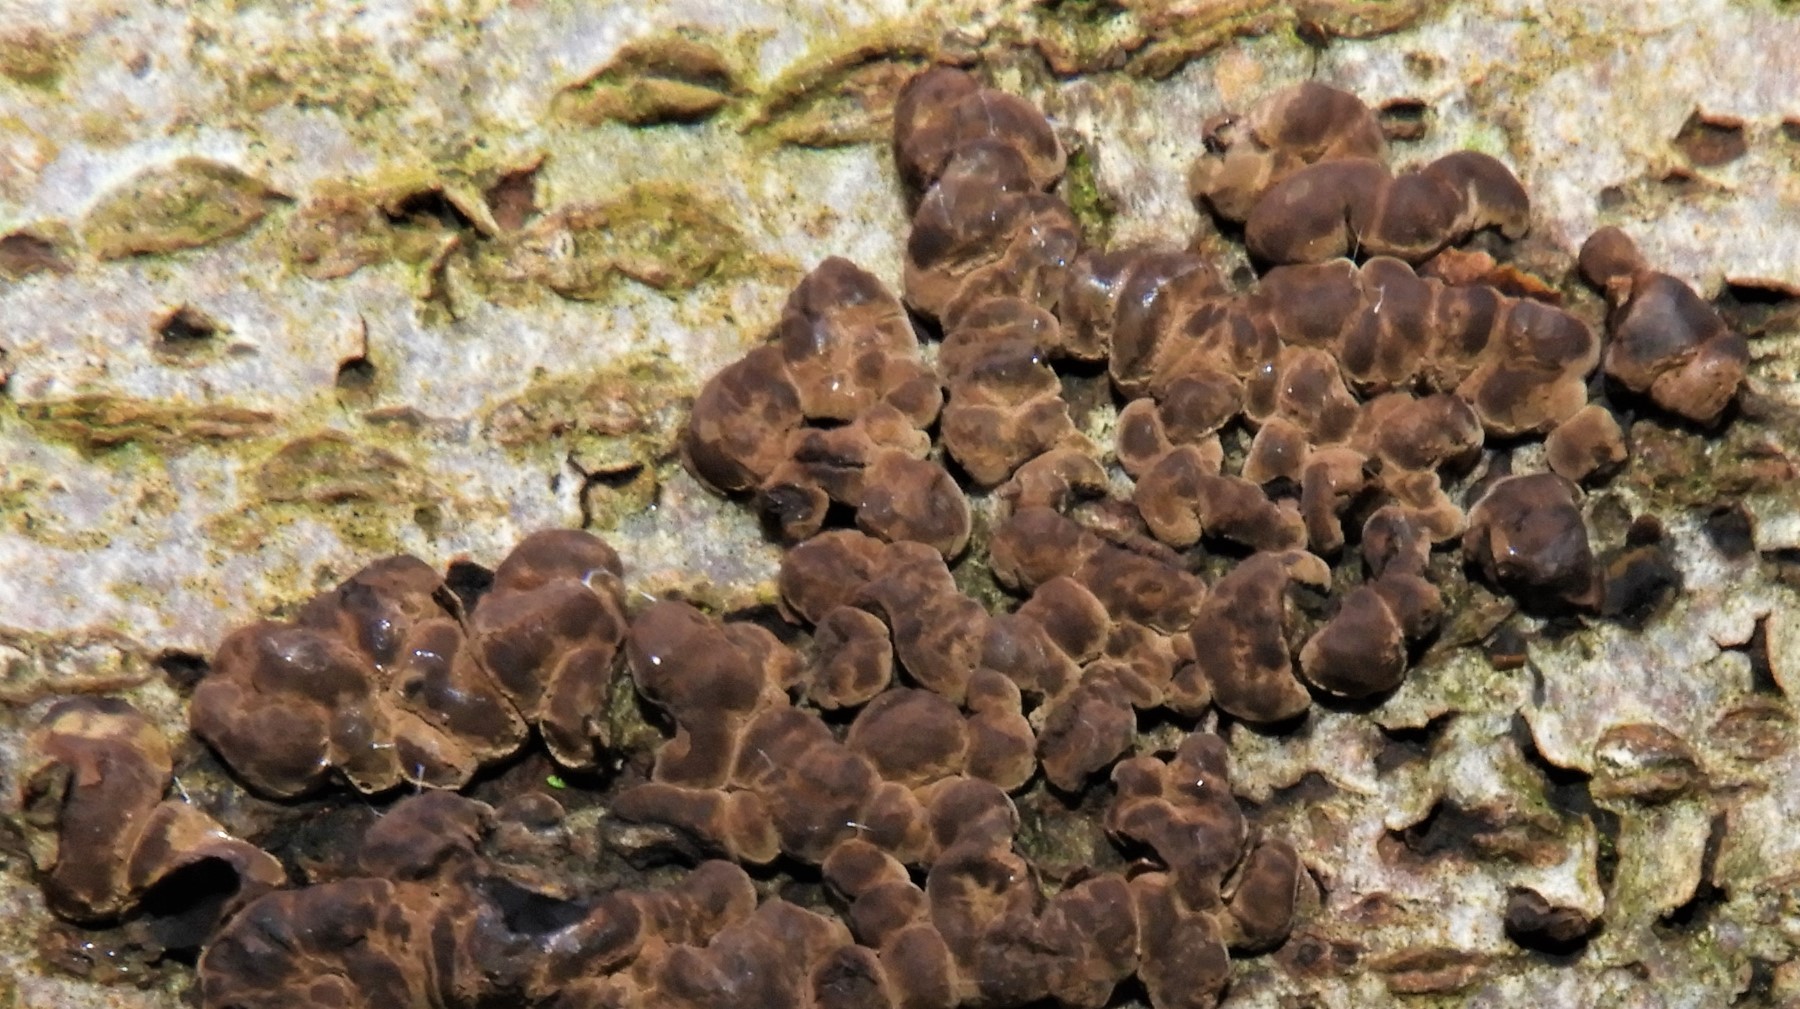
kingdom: Fungi
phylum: Ascomycota
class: Sordariomycetes
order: Xylariales
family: Hypoxylaceae
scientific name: Hypoxylaceae
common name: kulbærfamilien
